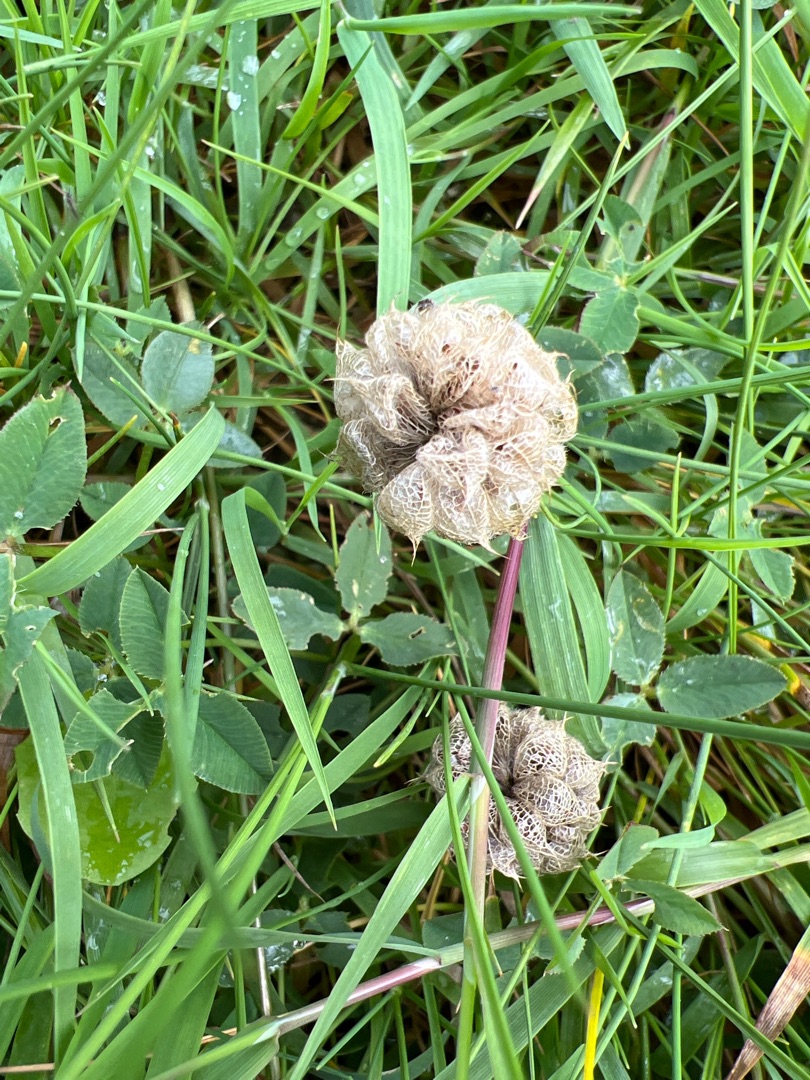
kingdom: Plantae
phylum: Tracheophyta
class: Magnoliopsida
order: Fabales
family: Fabaceae
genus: Trifolium
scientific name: Trifolium fragiferum
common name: Jordbær-kløver
